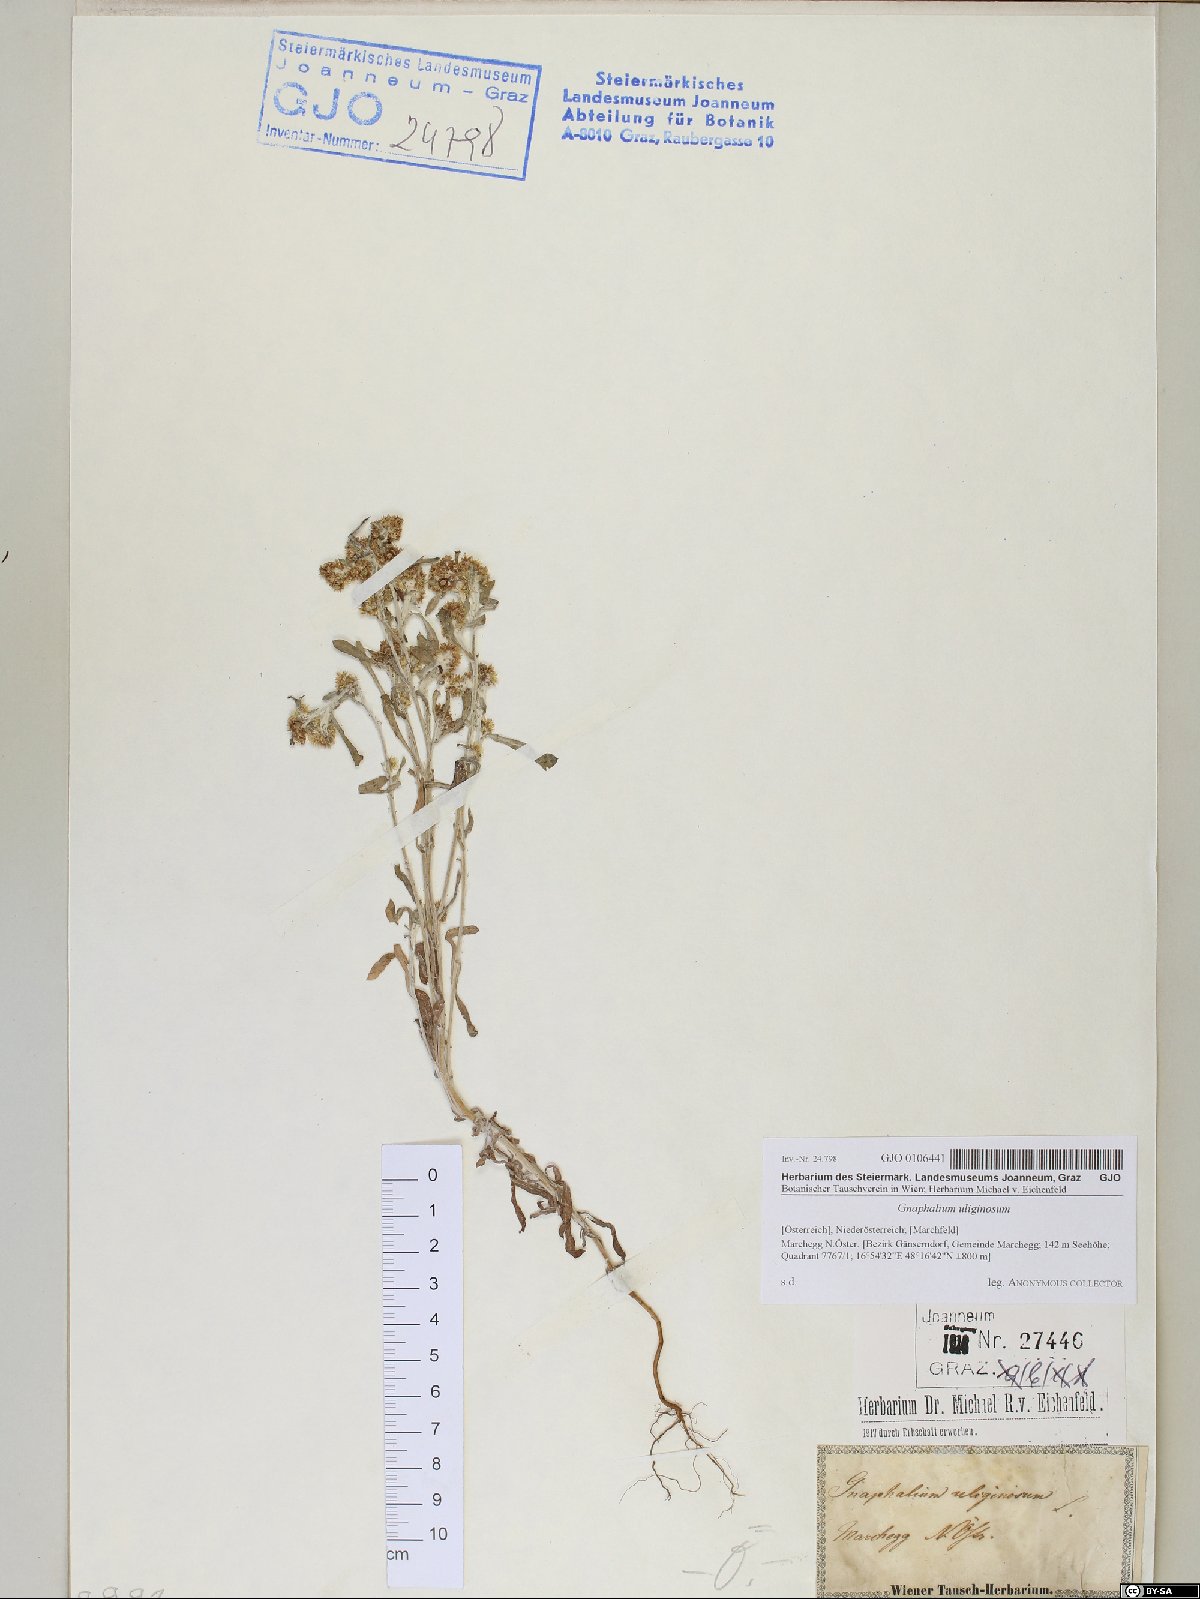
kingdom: Plantae
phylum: Tracheophyta
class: Magnoliopsida
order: Asterales
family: Asteraceae
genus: Gnaphalium
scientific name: Gnaphalium uliginosum
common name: Marsh cudweed
